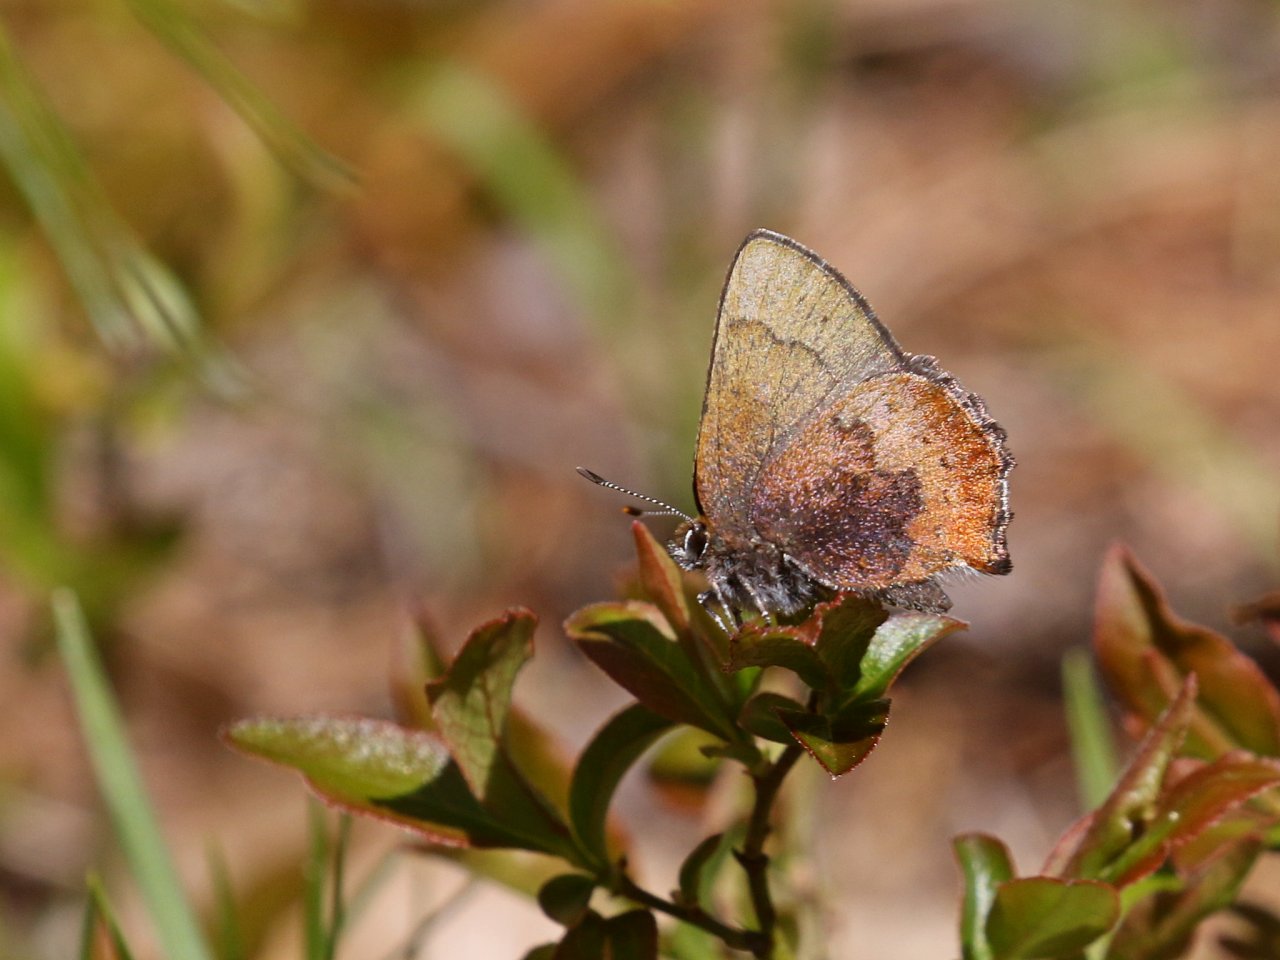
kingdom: Animalia
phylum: Arthropoda
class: Insecta
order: Lepidoptera
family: Lycaenidae
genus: Incisalia
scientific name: Incisalia irioides
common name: Brown Elfin
